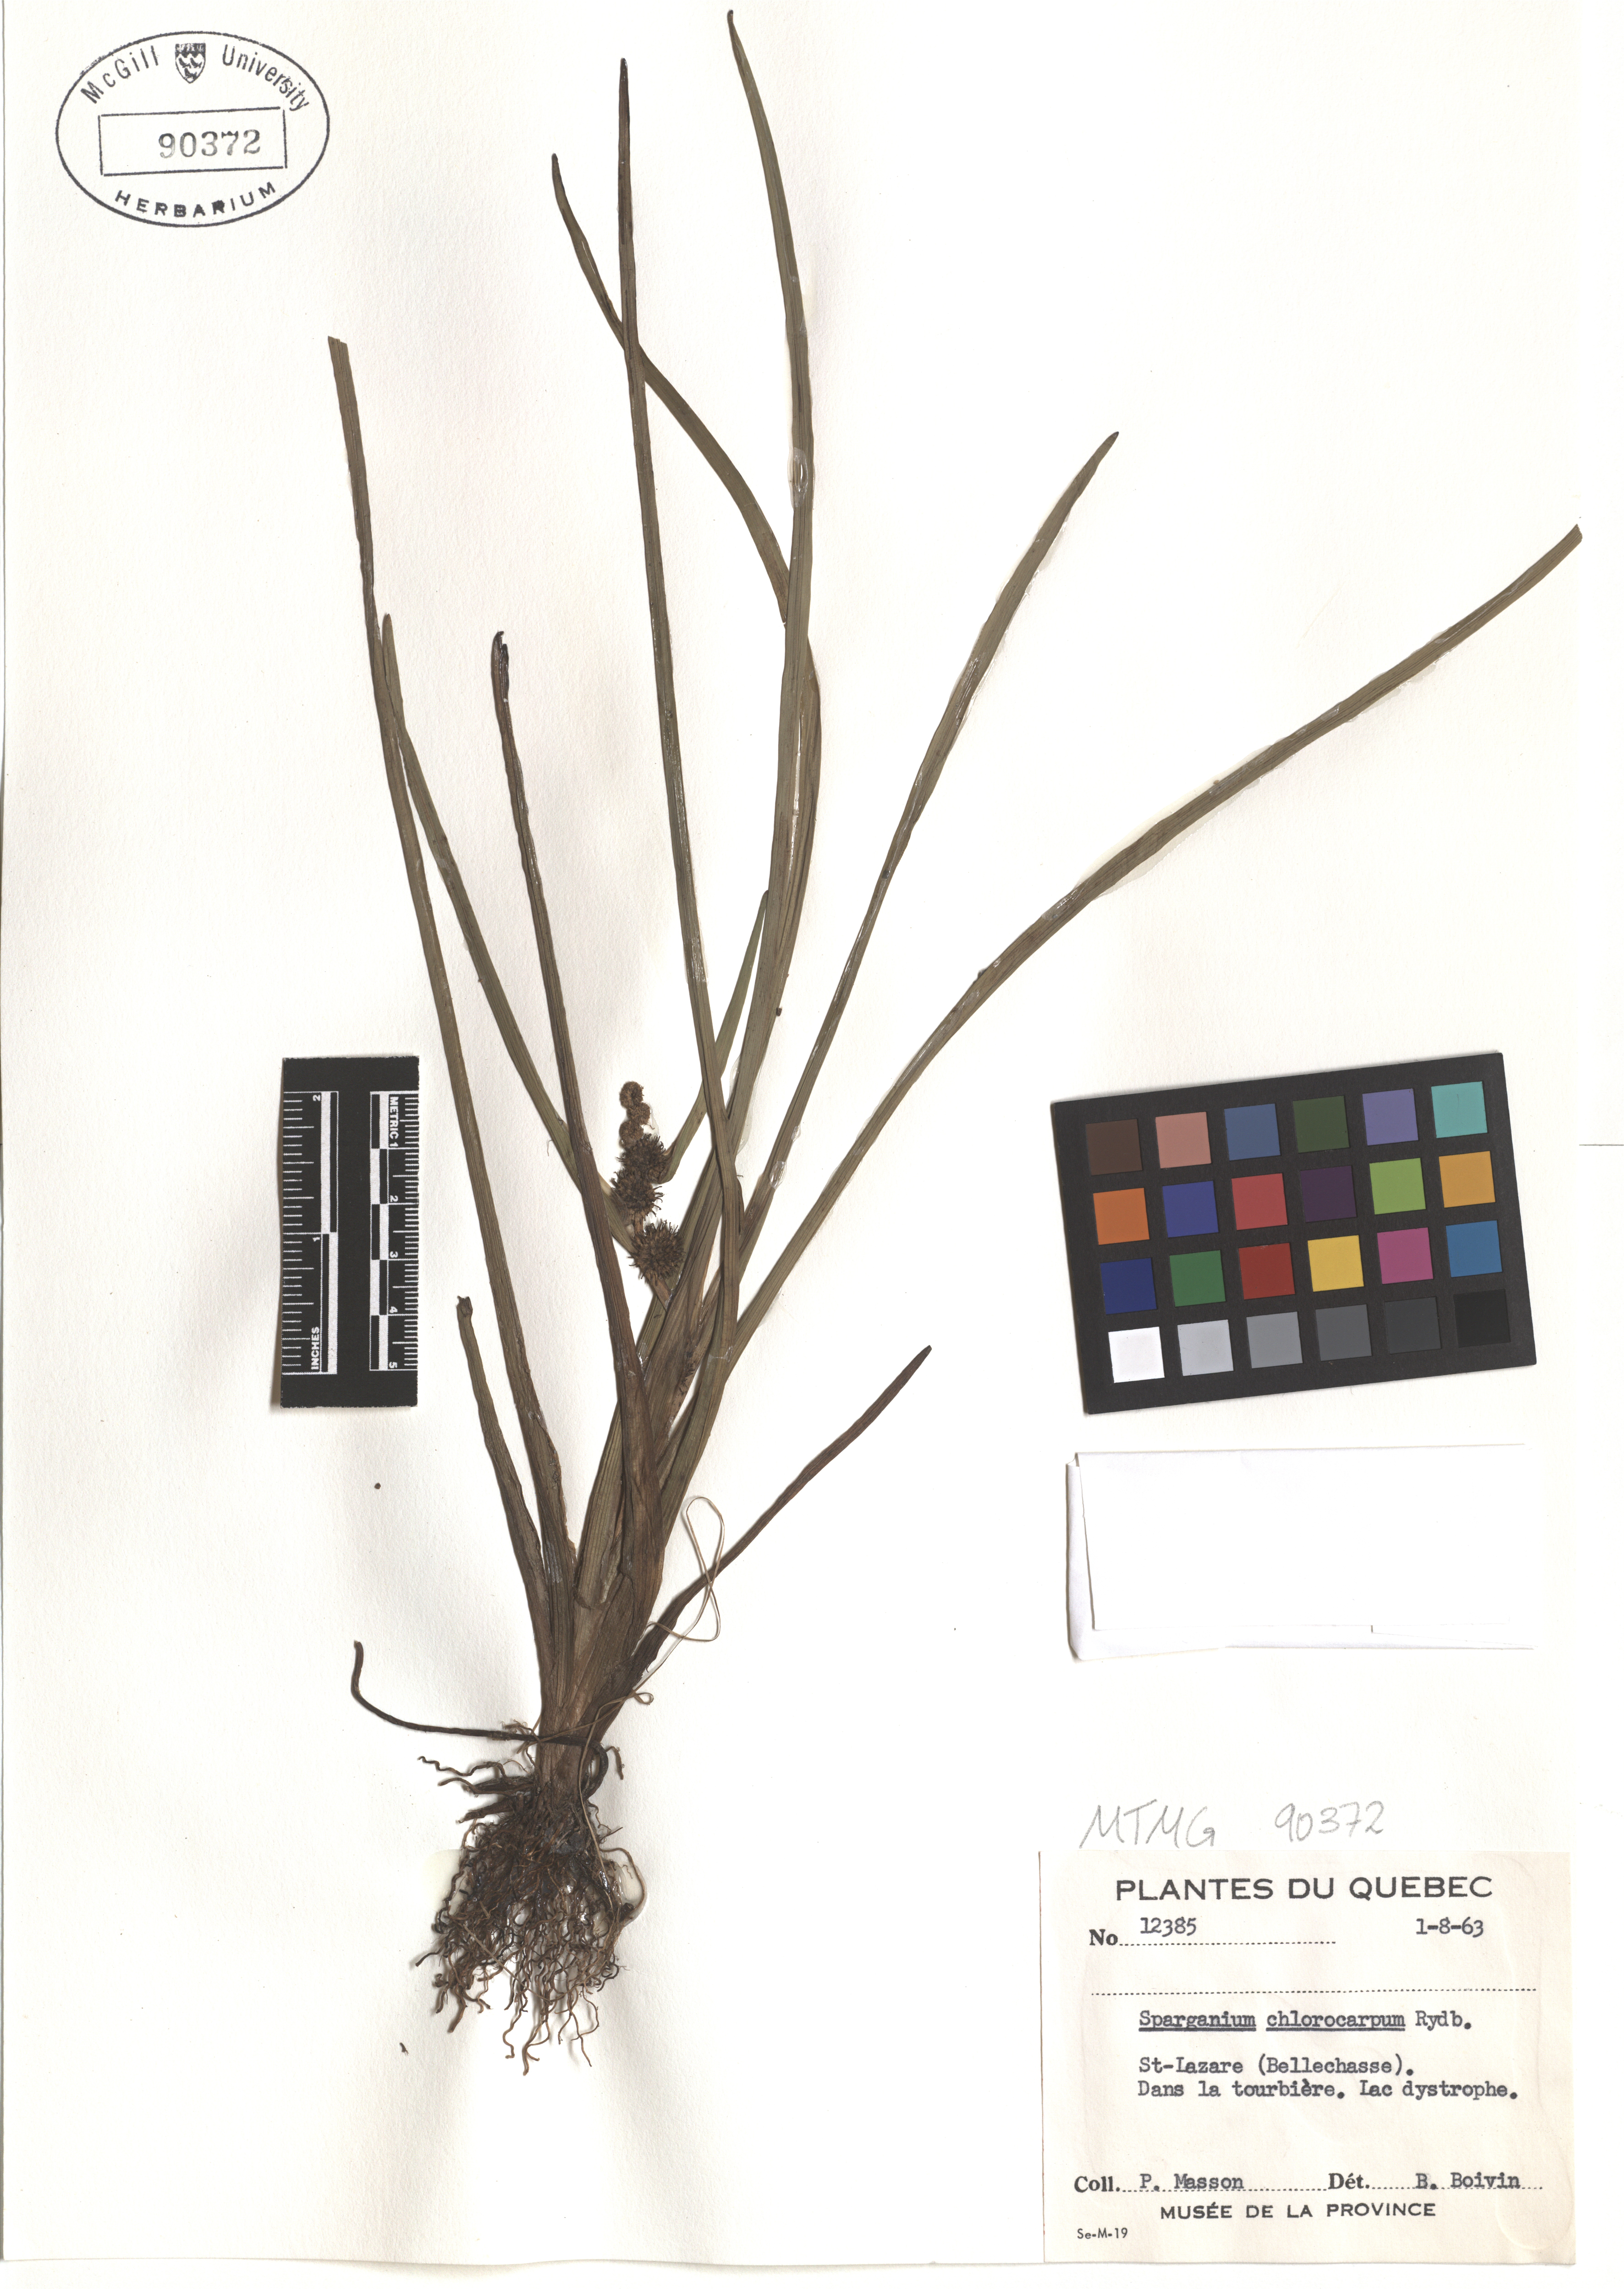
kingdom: Plantae
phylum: Tracheophyta
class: Liliopsida
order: Poales
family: Typhaceae
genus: Sparganium
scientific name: Sparganium emersum
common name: Unbranched bur-reed
